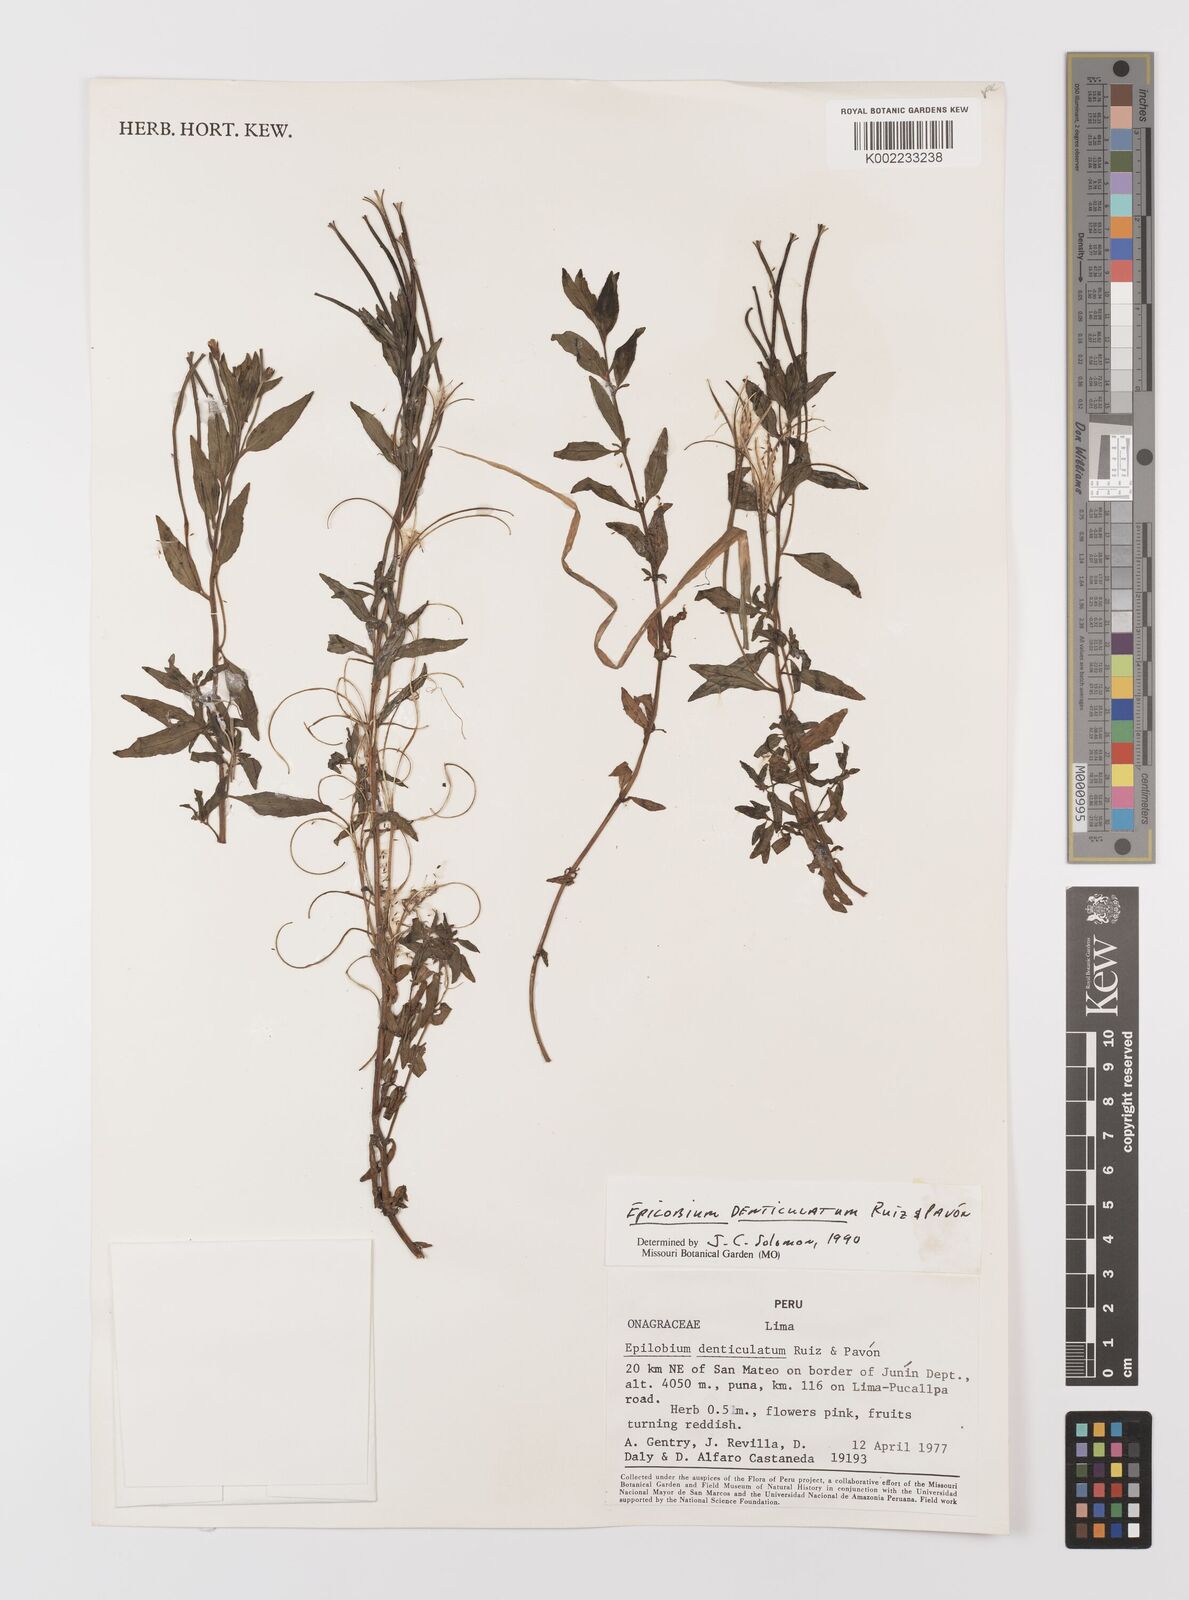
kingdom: Plantae
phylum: Tracheophyta
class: Magnoliopsida
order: Myrtales
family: Onagraceae
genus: Epilobium
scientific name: Epilobium denticulatum
